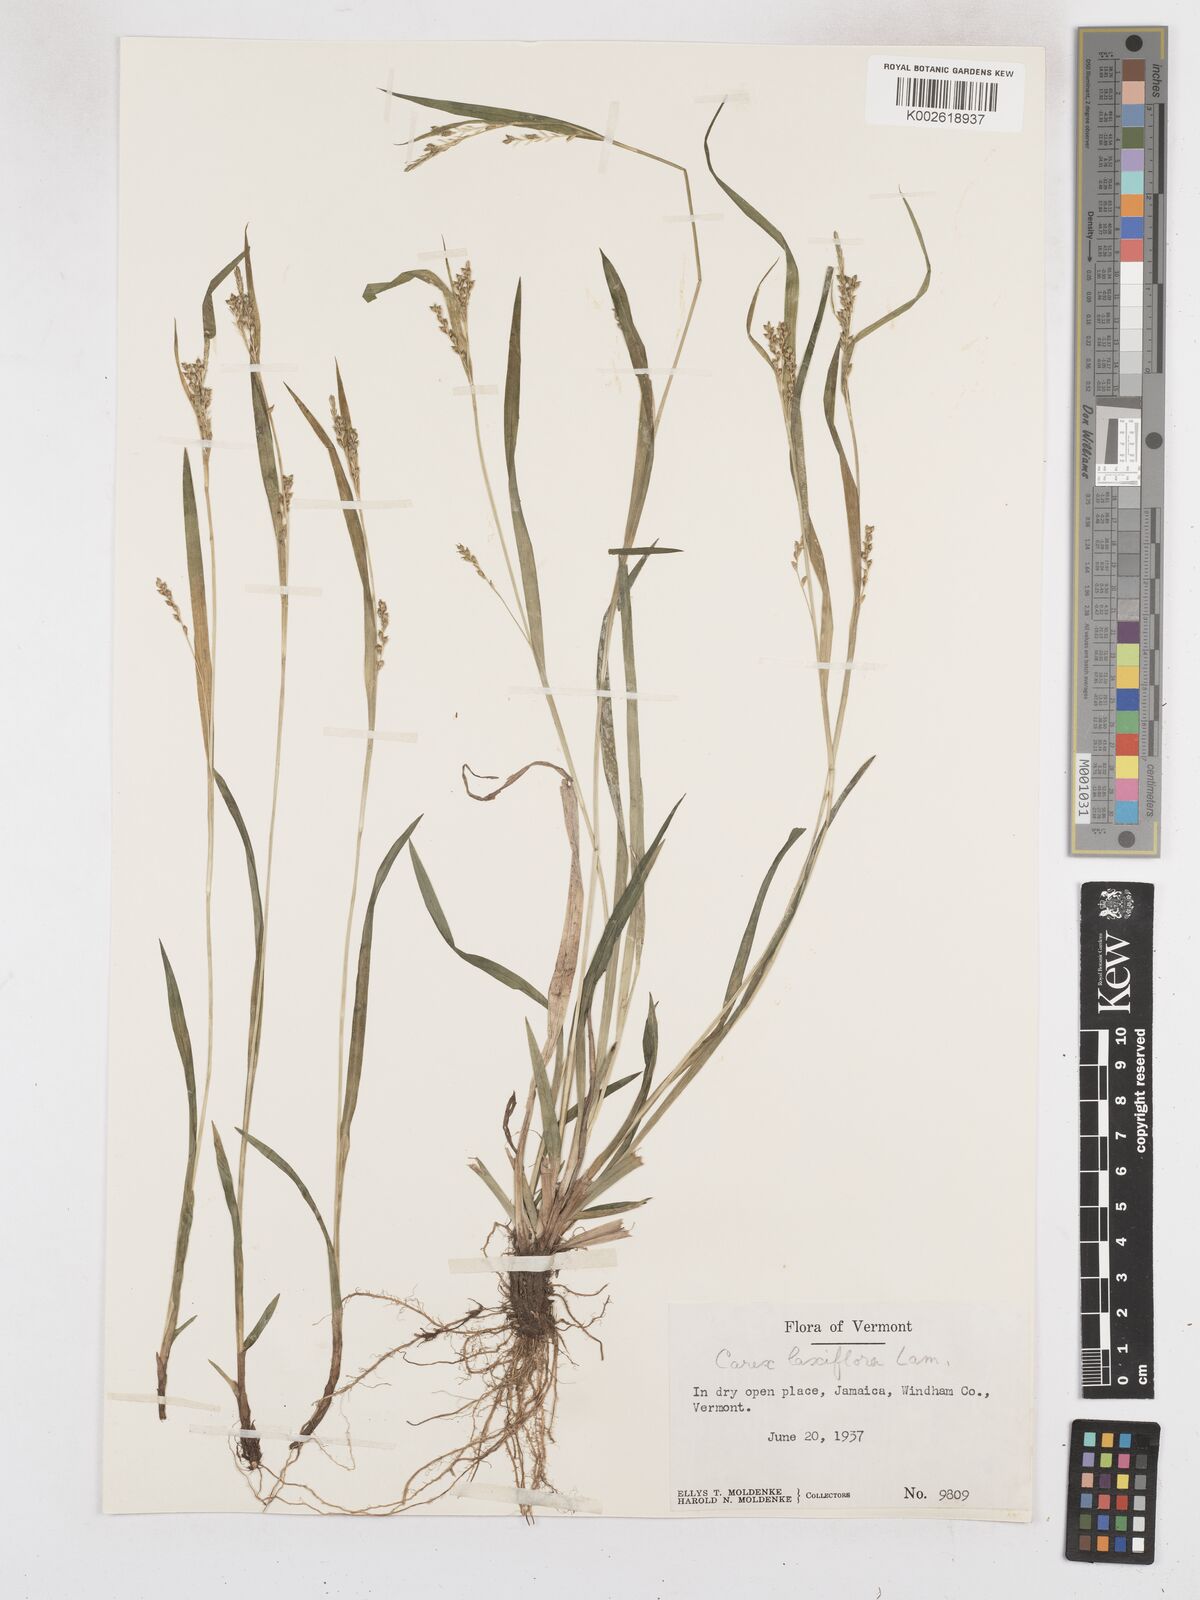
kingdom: Plantae
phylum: Tracheophyta
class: Liliopsida
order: Poales
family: Cyperaceae
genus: Carex
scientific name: Carex laxiflora
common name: Beech wood sedge
